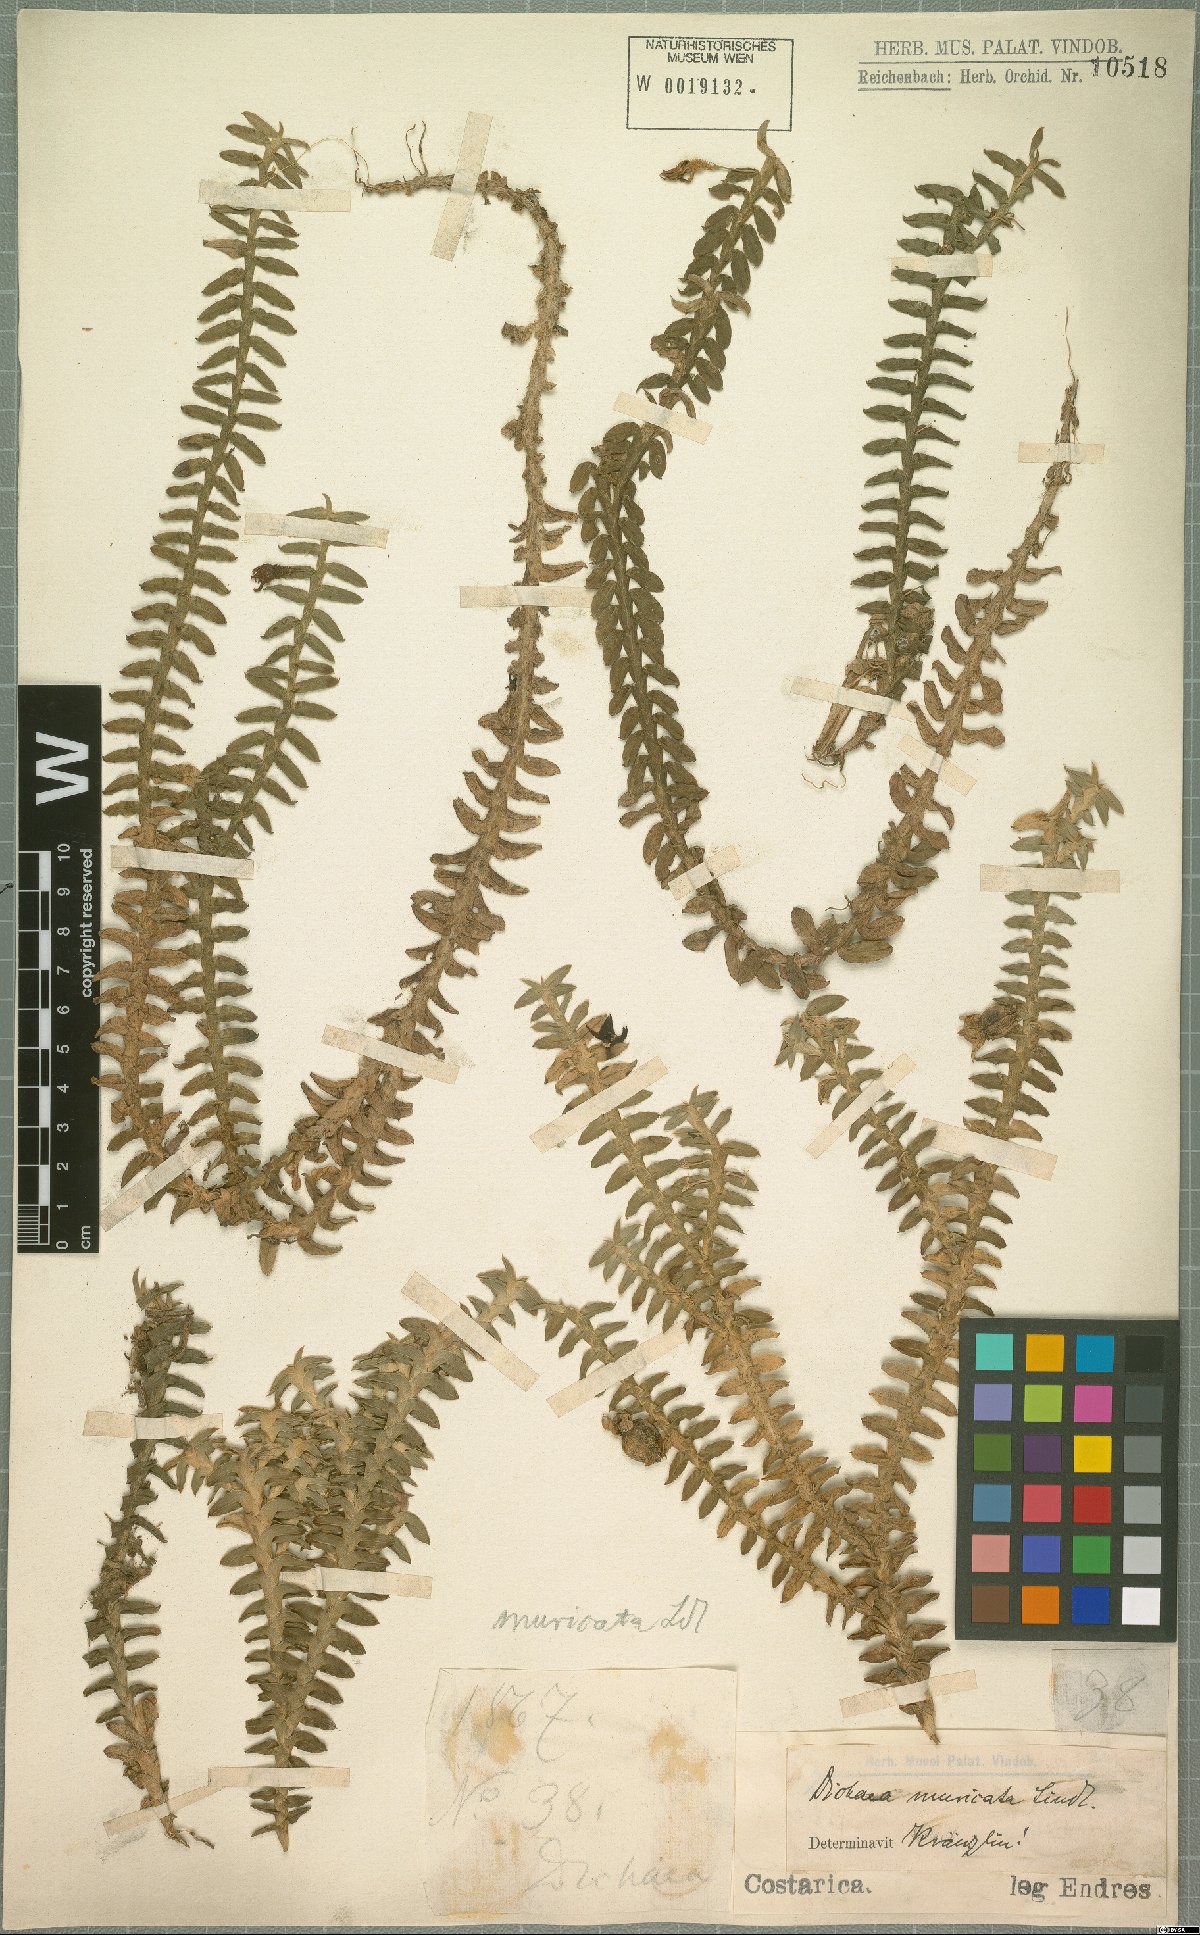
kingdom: Plantae
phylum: Tracheophyta
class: Liliopsida
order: Asparagales
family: Orchidaceae
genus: Dichaea
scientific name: Dichaea morrisii
